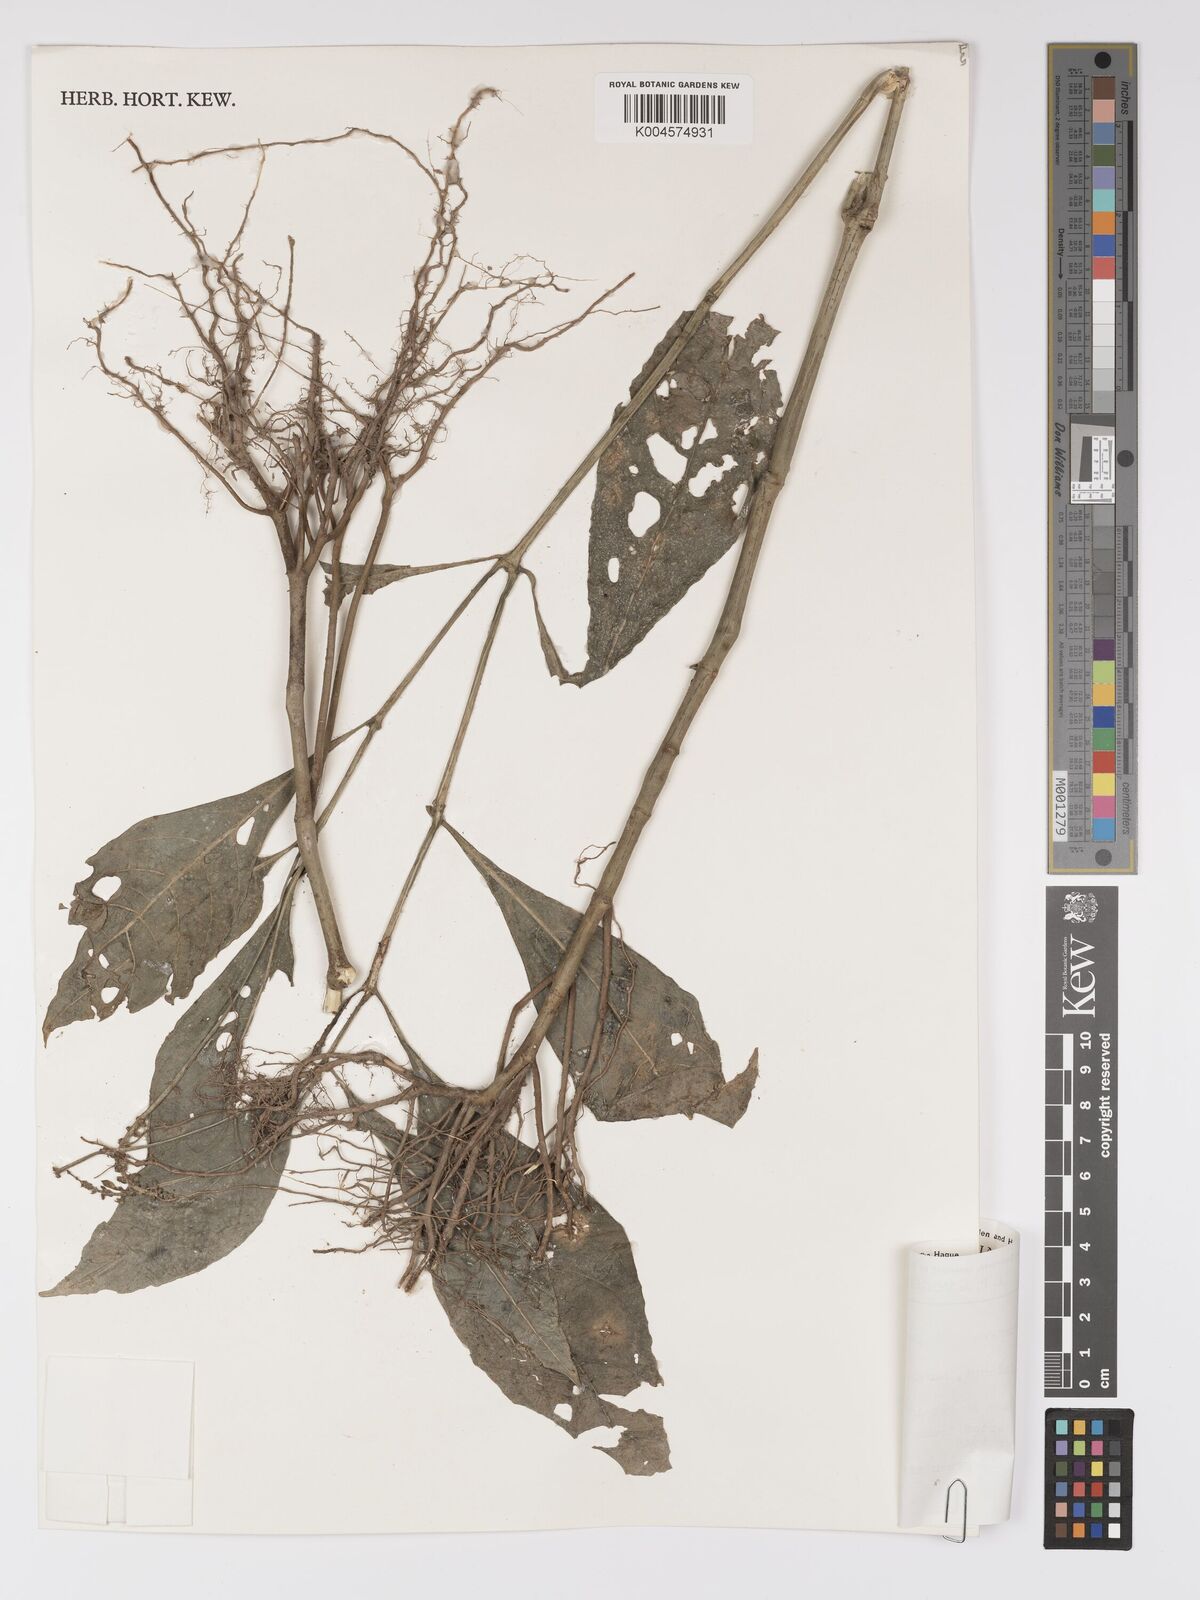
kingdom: Plantae
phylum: Tracheophyta
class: Magnoliopsida
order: Lamiales
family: Acanthaceae
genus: Pseuderanthemum
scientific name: Pseuderanthemum acuminatissimum
